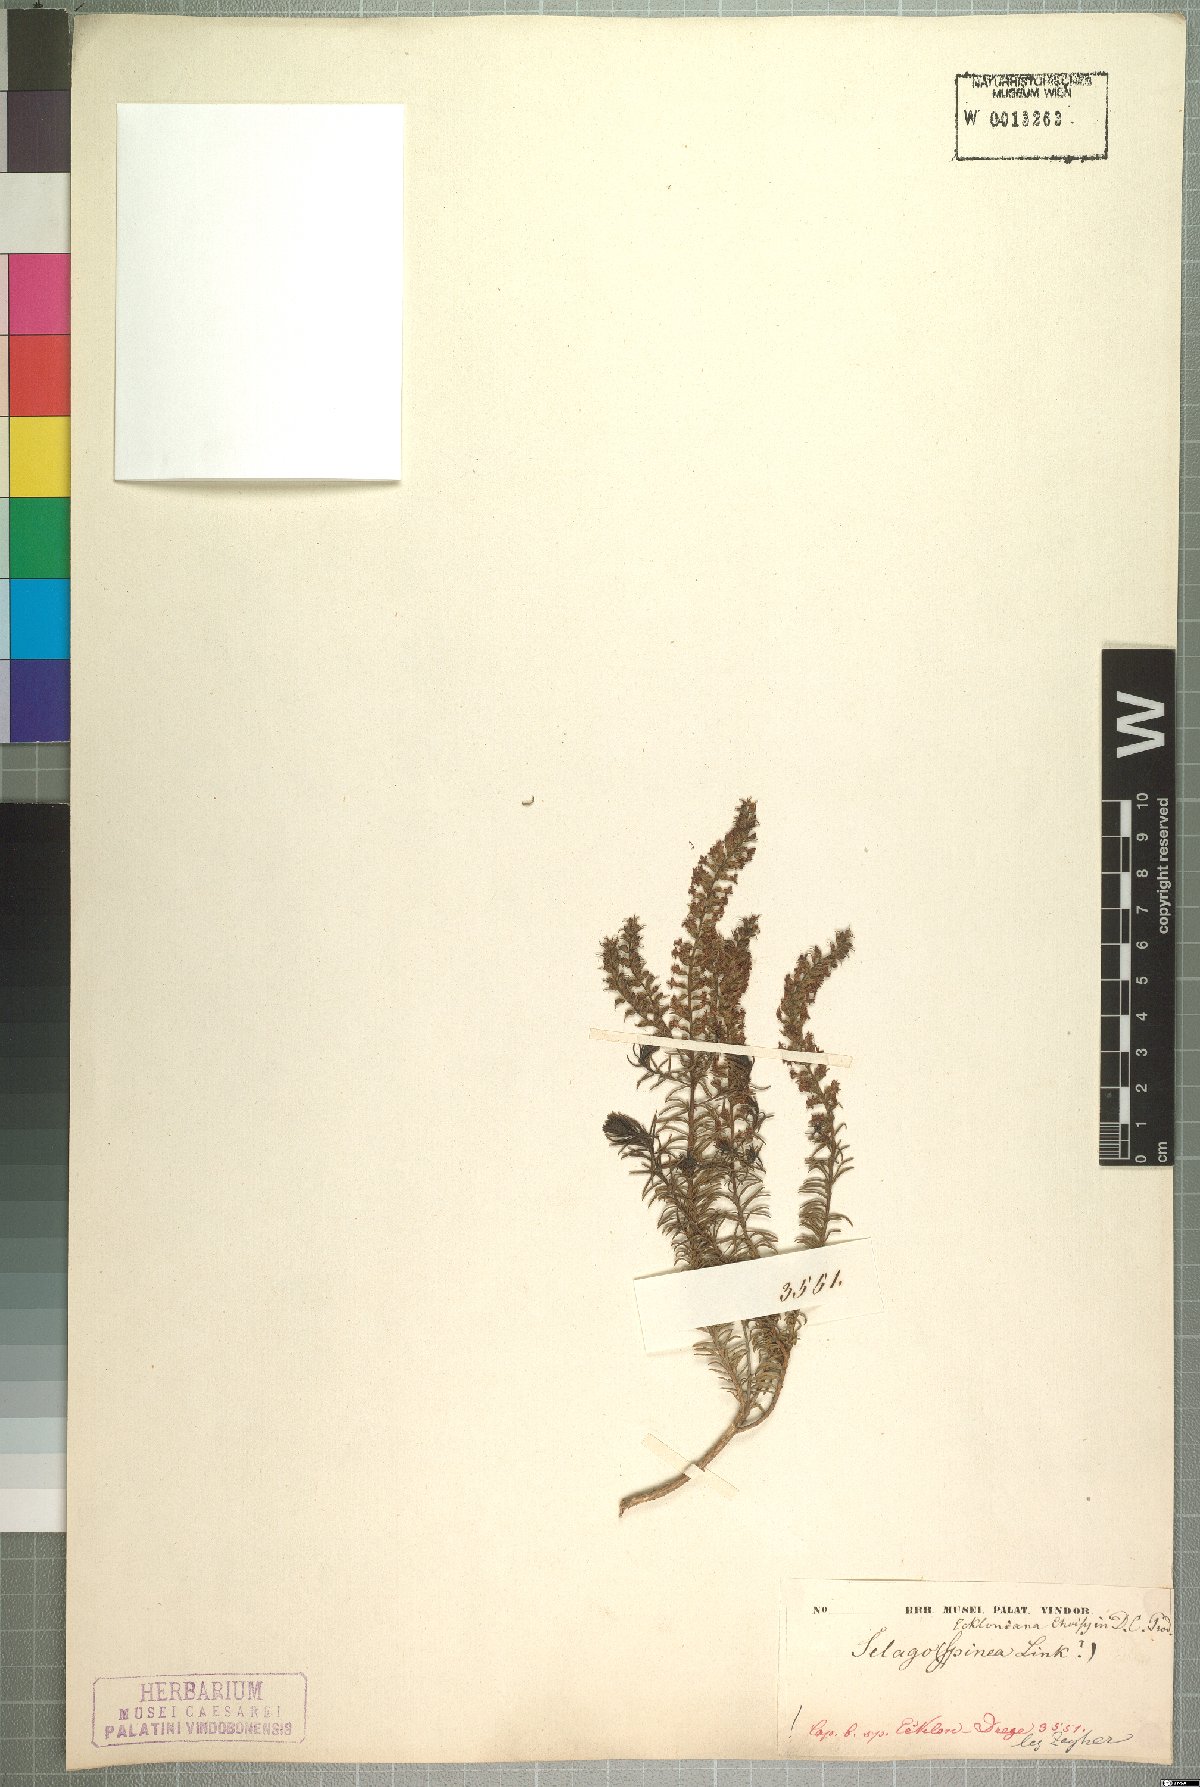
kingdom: Plantae
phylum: Tracheophyta
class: Magnoliopsida
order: Lamiales
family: Scrophulariaceae
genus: Selago
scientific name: Selago eckloniana
